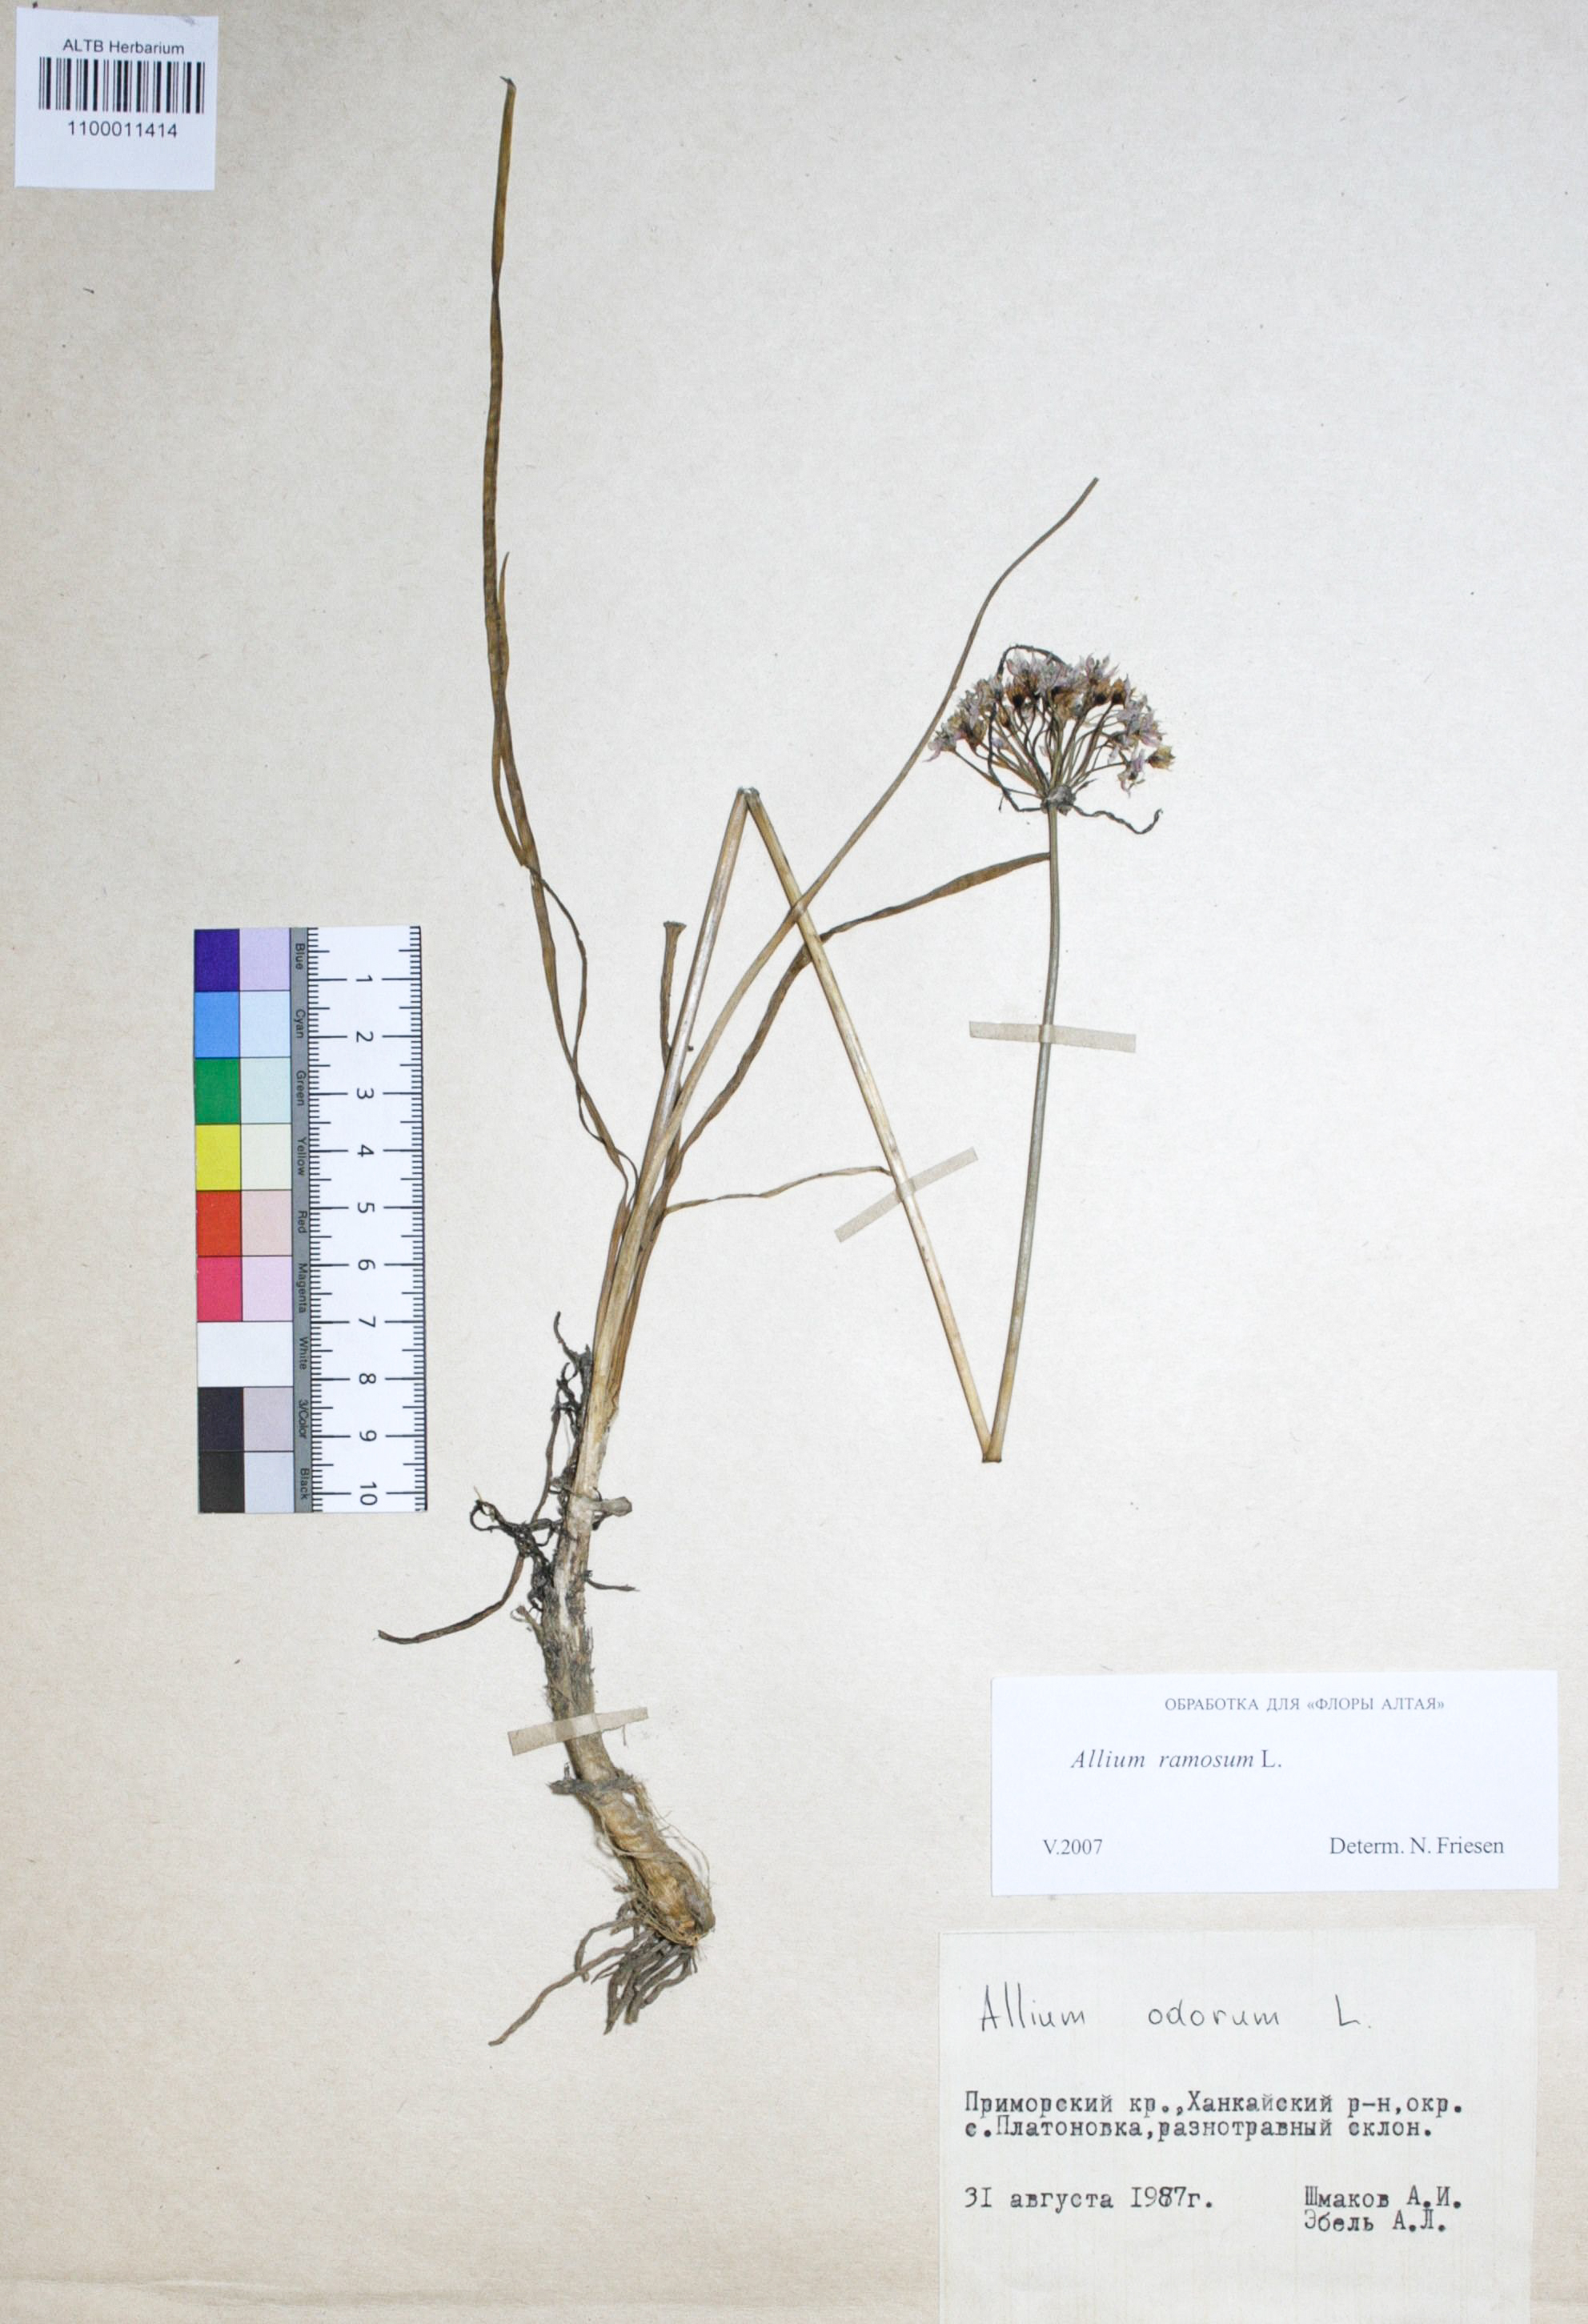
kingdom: Plantae
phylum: Tracheophyta
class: Liliopsida
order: Asparagales
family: Amaryllidaceae
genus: Allium
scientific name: Allium ramosum
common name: Fragrant garlic
